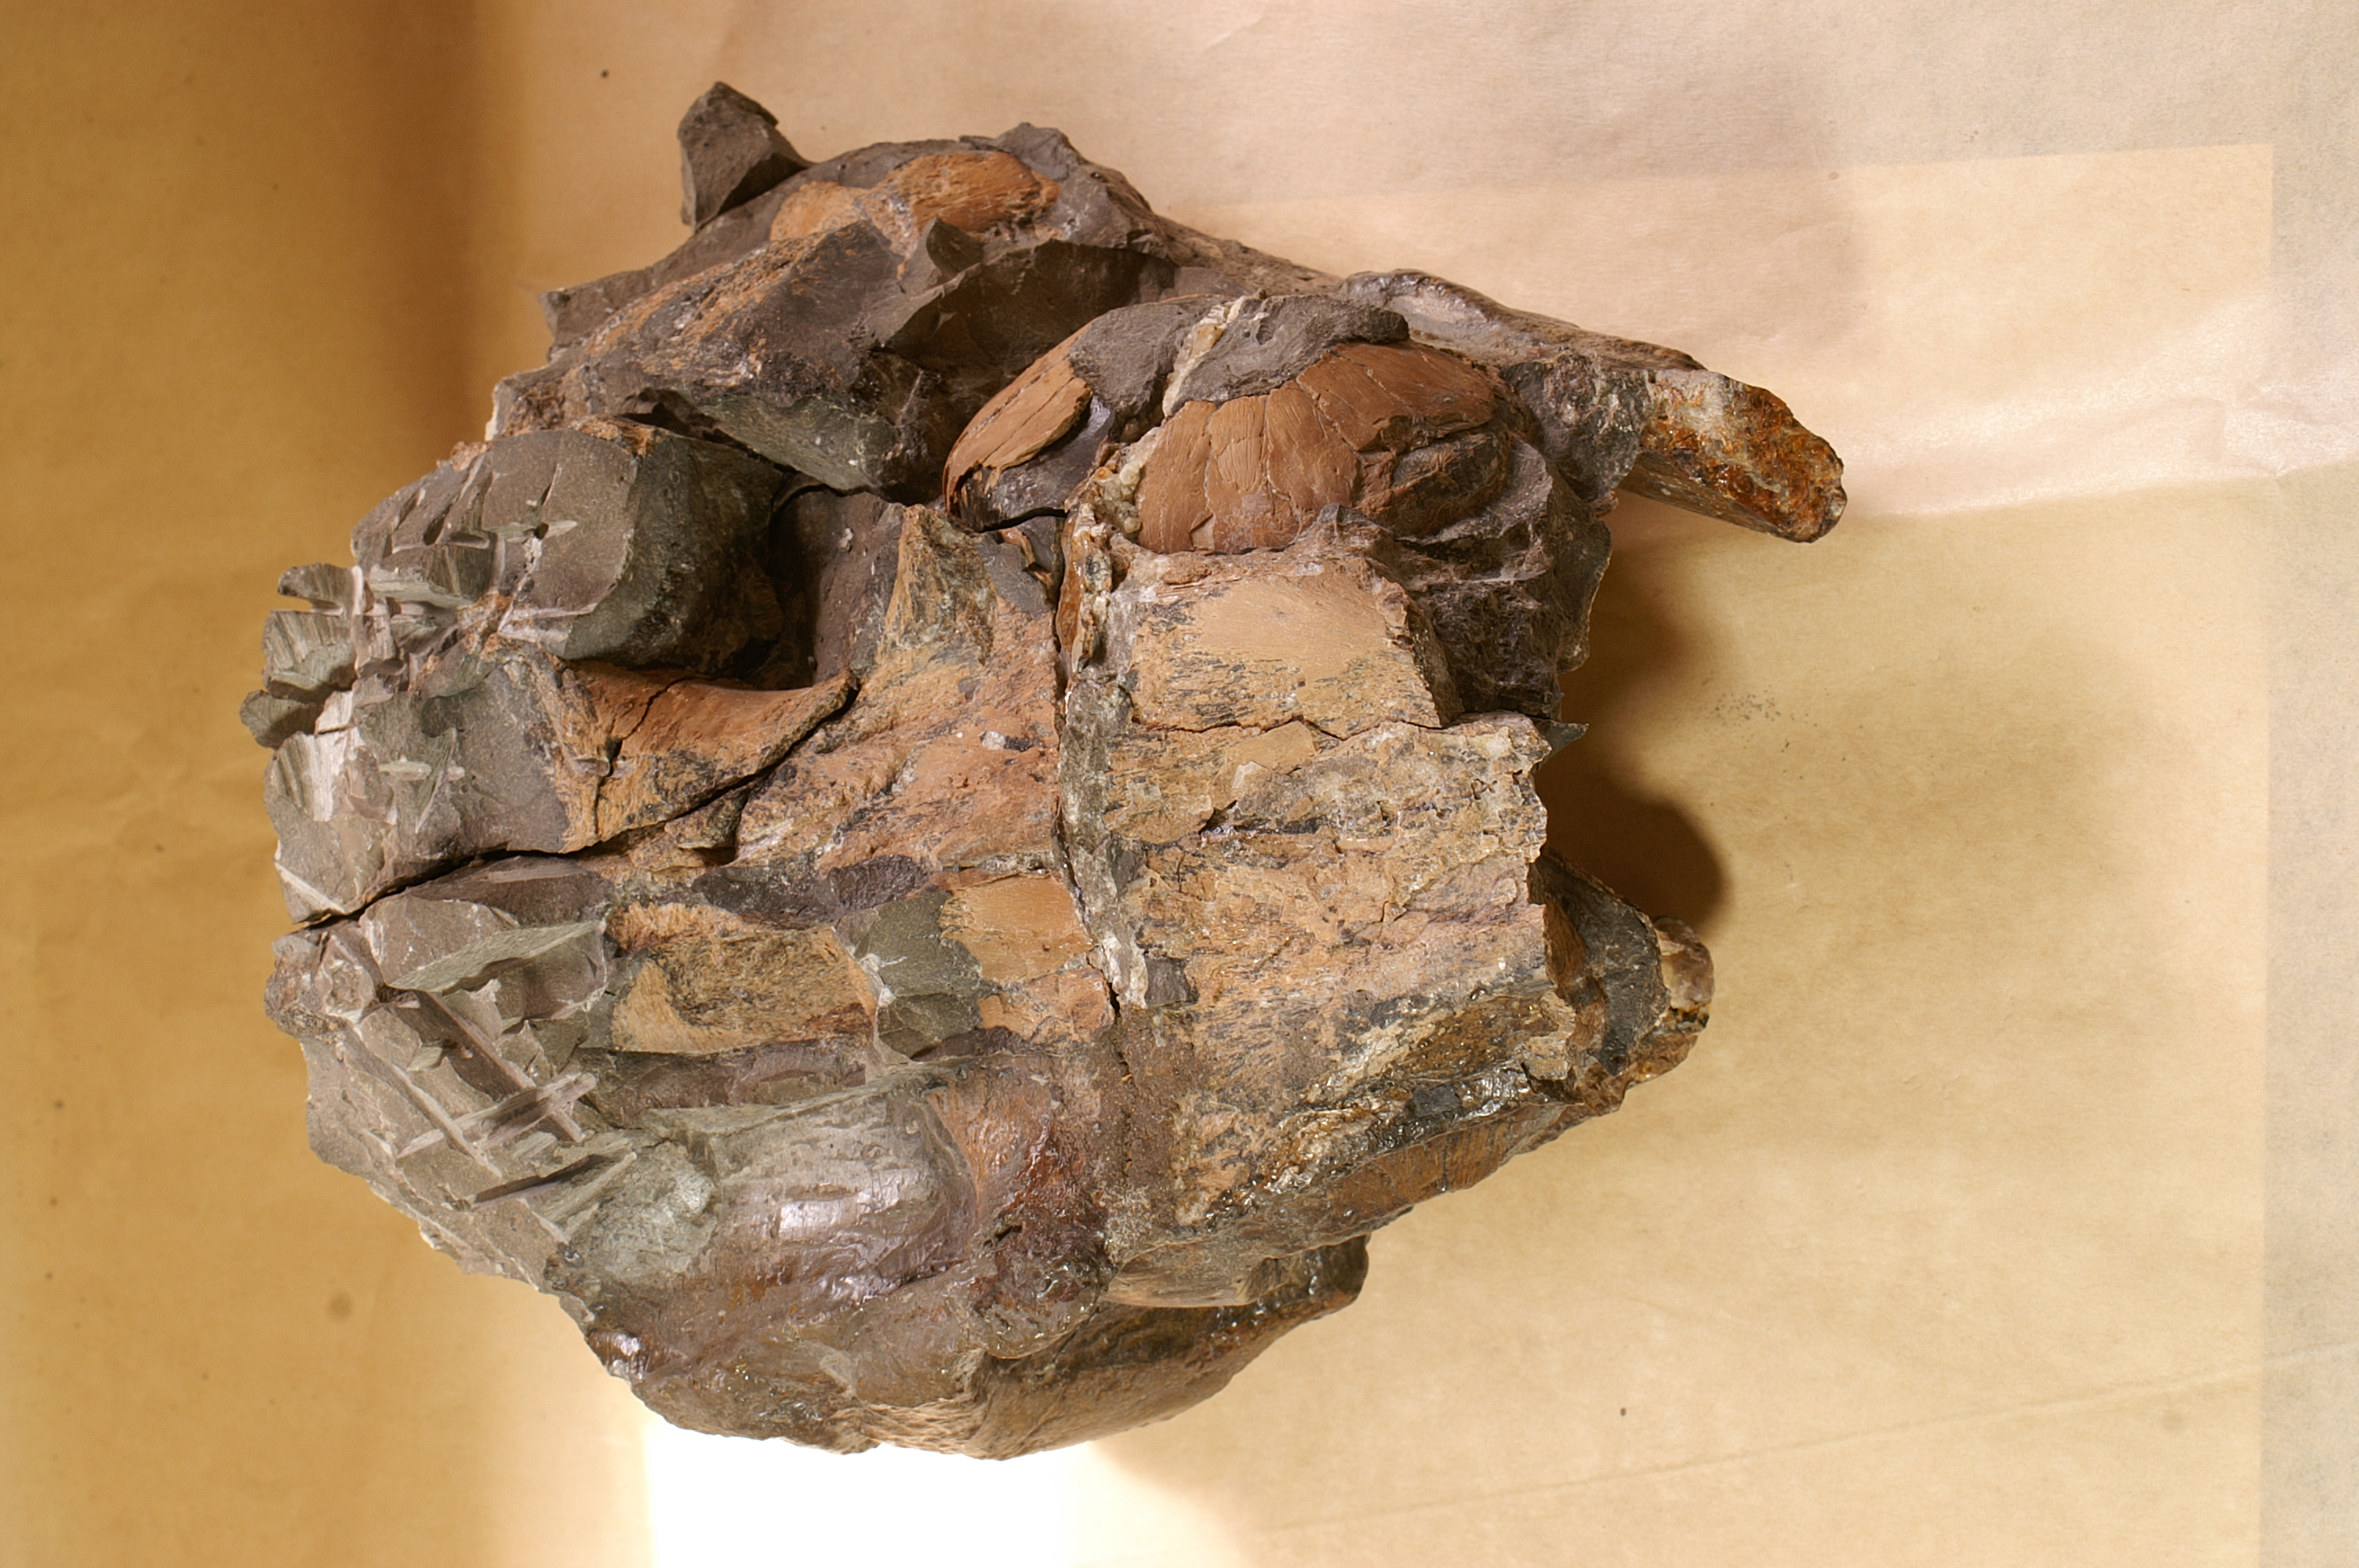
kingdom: Animalia
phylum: Chordata
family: Stenopterygiidae
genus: Stenopterygius
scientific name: Stenopterygius quadriscissus
